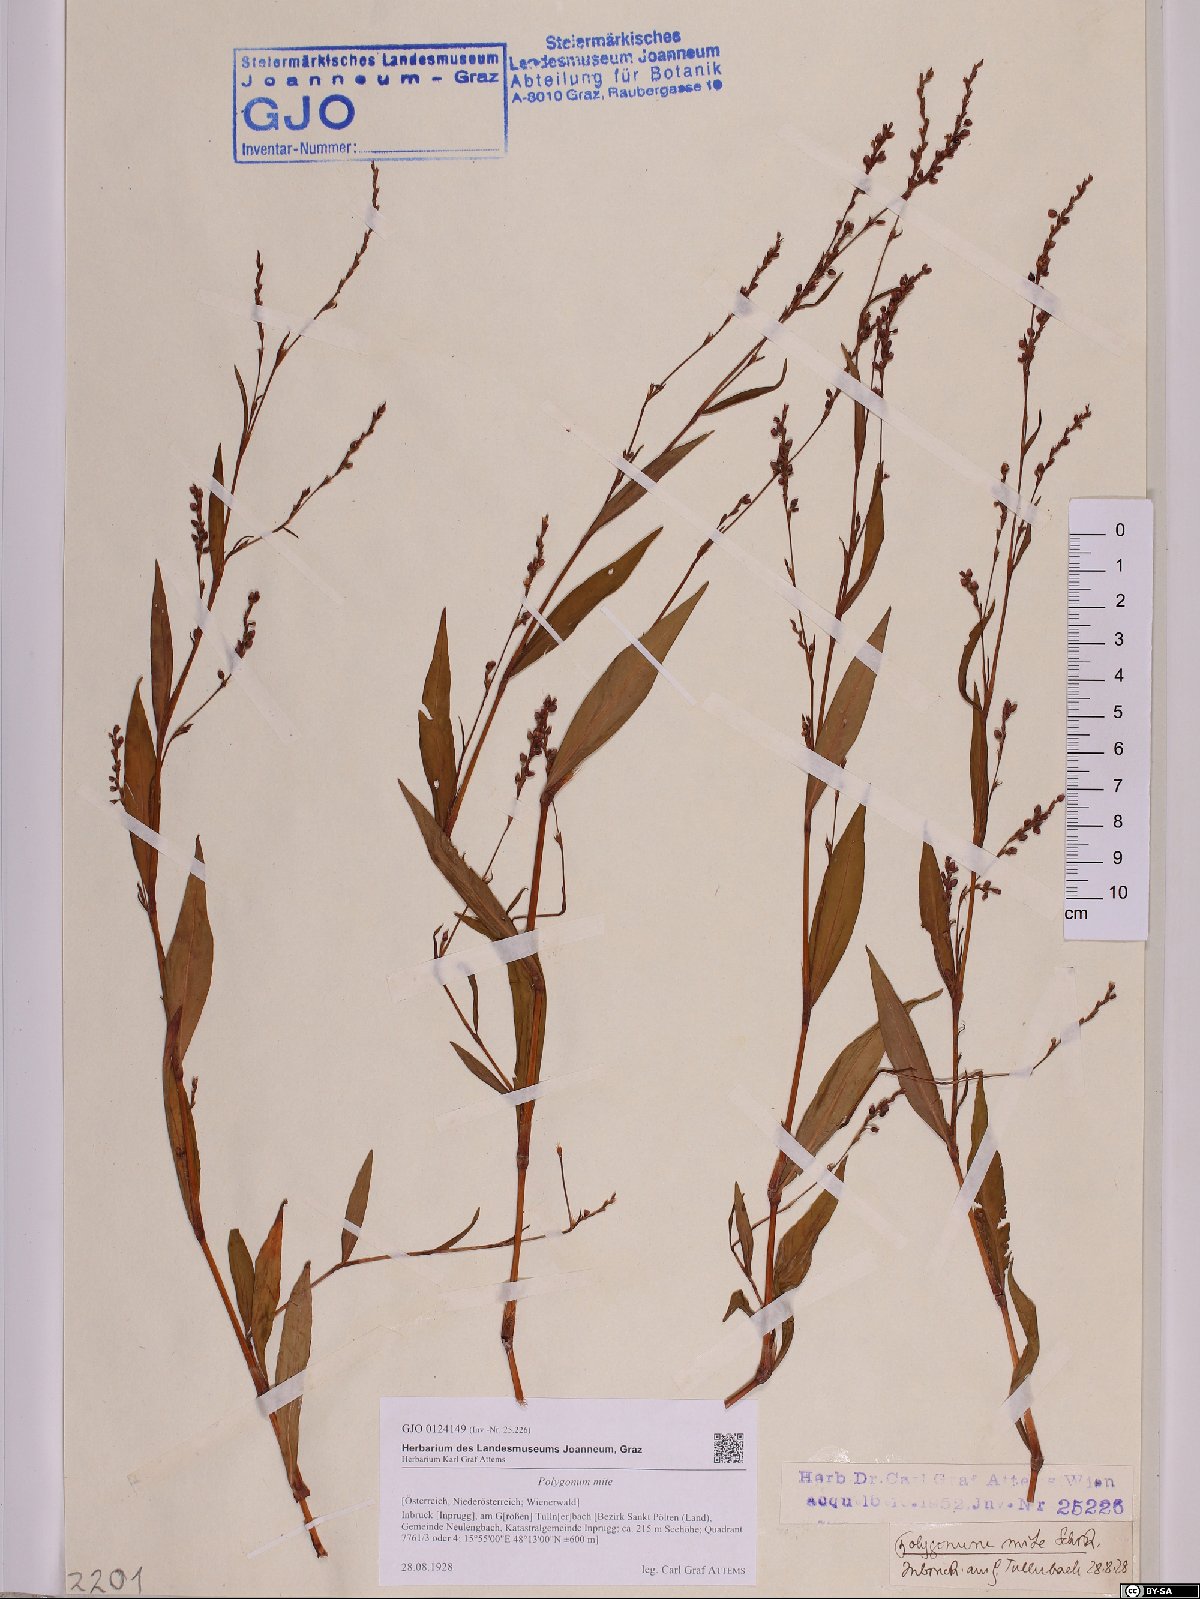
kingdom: Plantae
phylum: Tracheophyta
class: Magnoliopsida
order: Caryophyllales
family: Polygonaceae
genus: Persicaria
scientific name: Persicaria mitis
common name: Tasteless water-pepper
